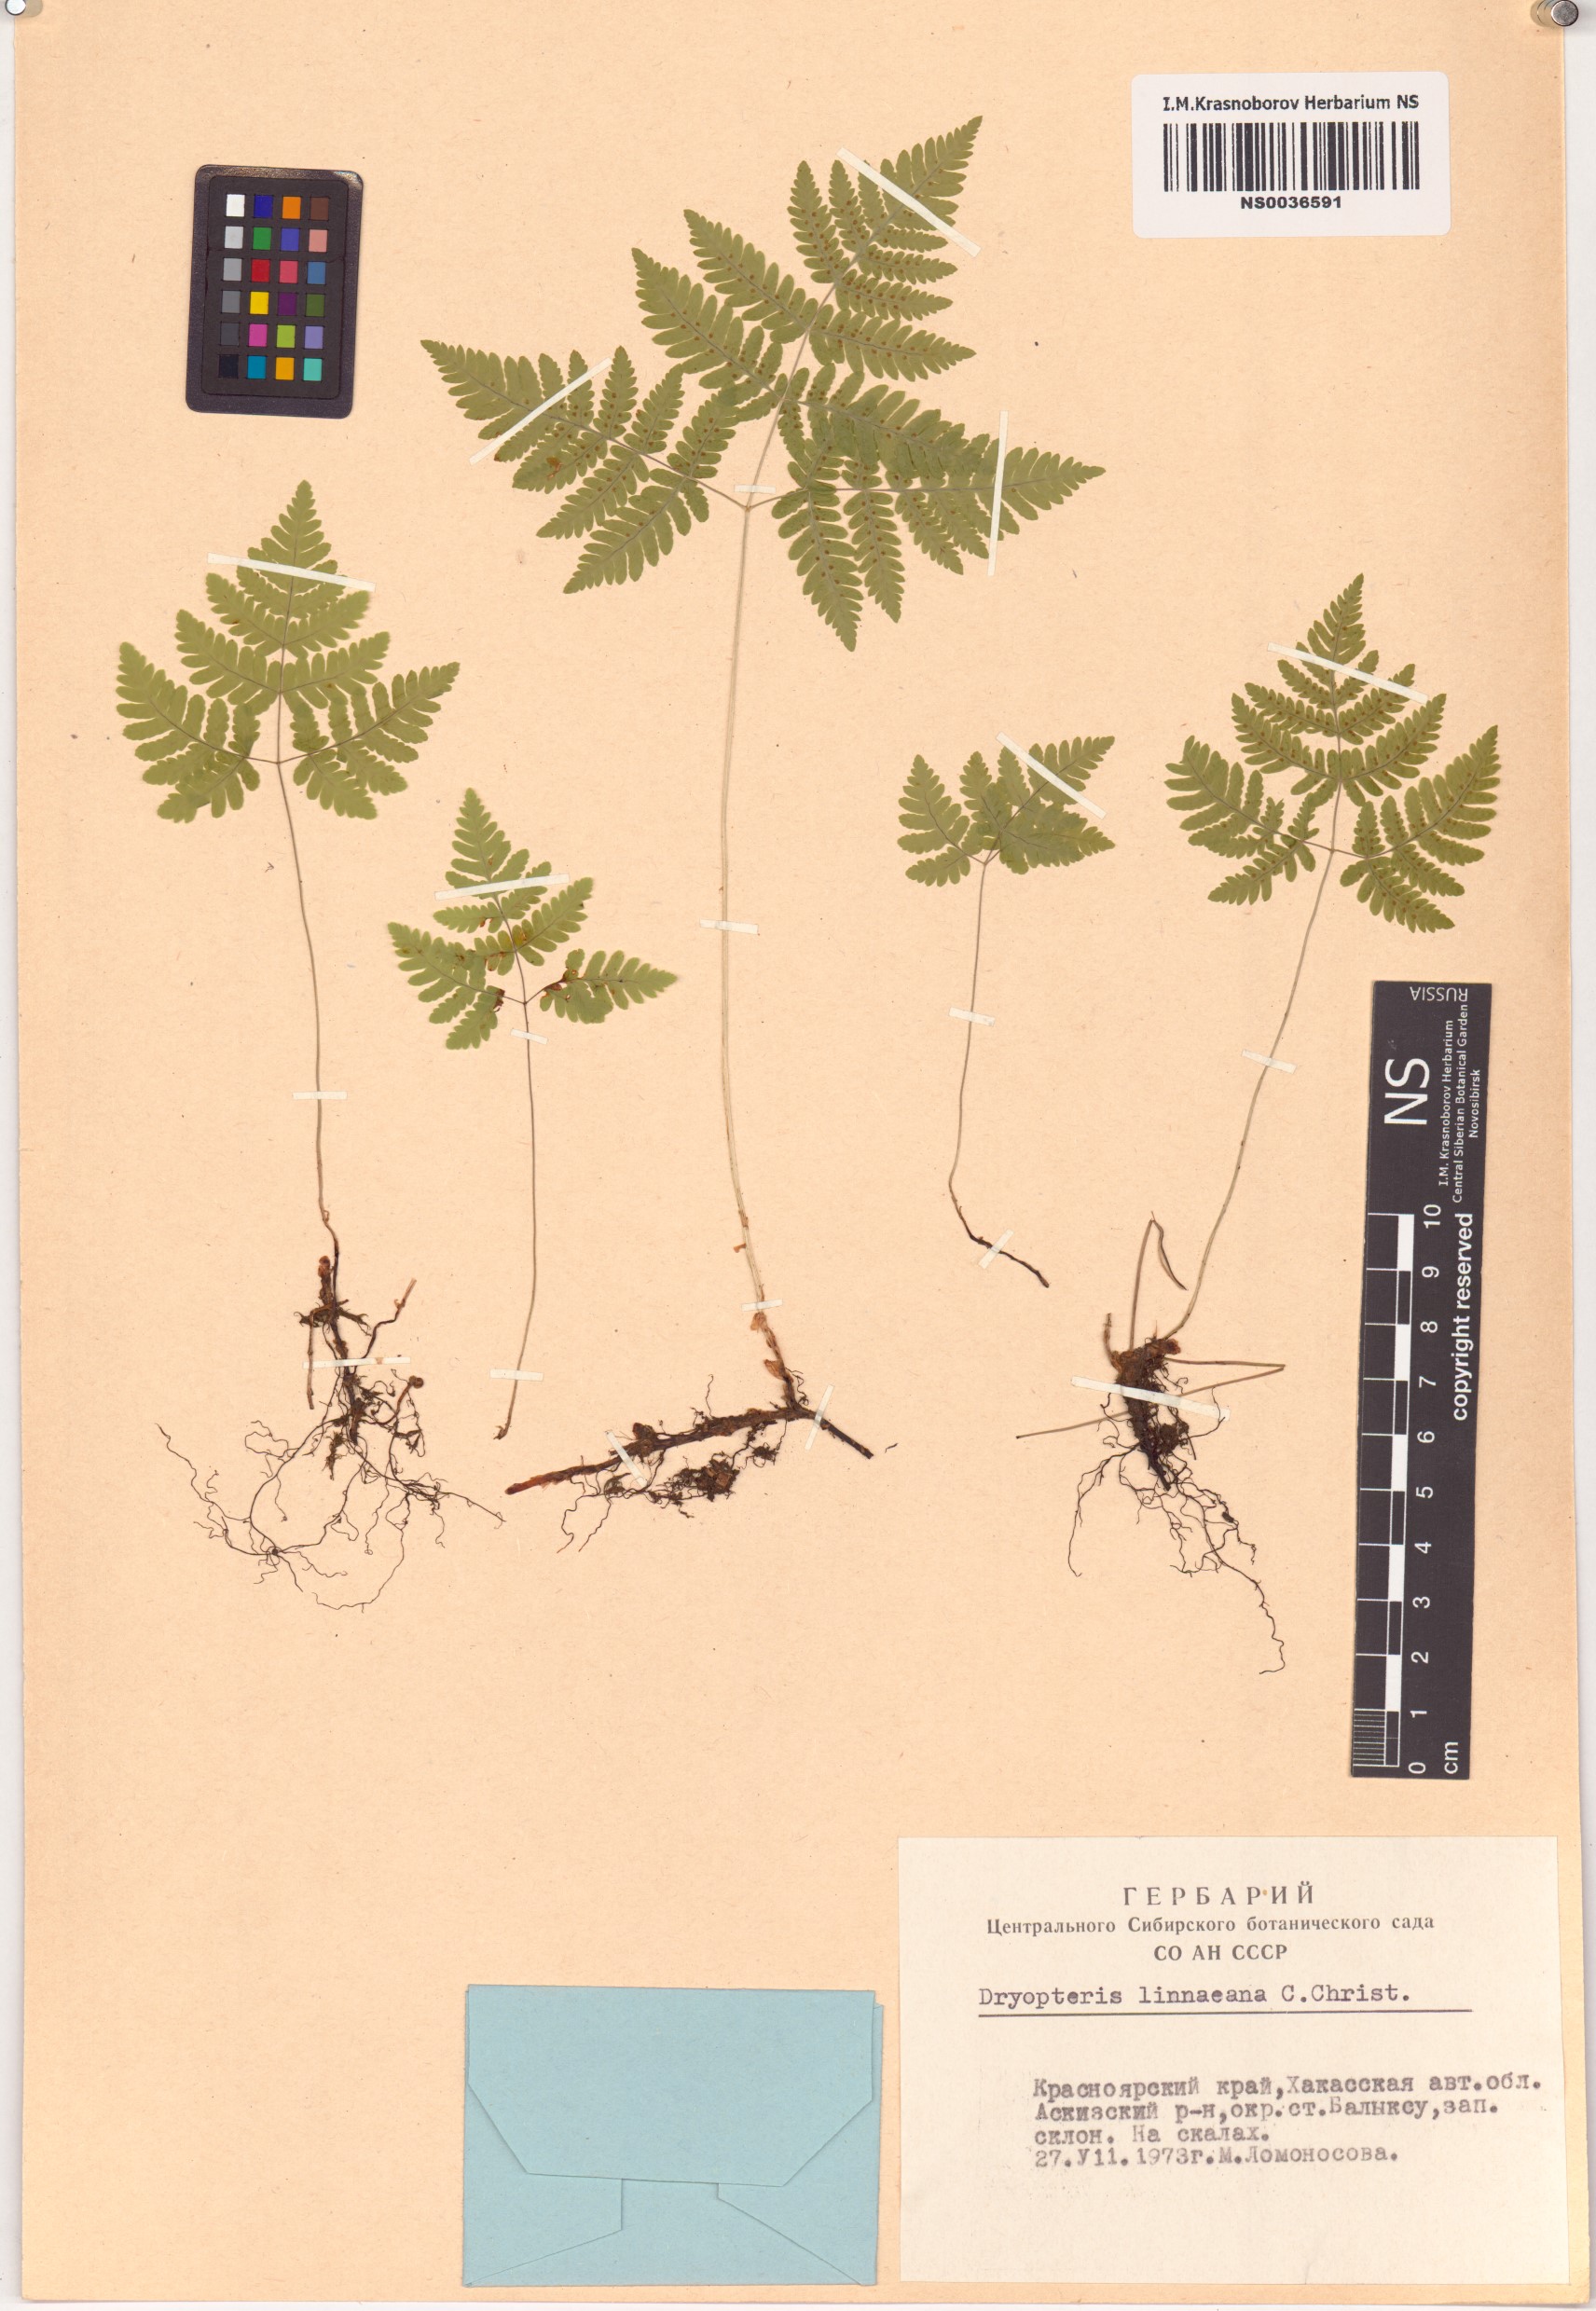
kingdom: Plantae
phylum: Tracheophyta
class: Polypodiopsida
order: Polypodiales
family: Cystopteridaceae
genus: Gymnocarpium
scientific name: Gymnocarpium dryopteris
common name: Oak fern
